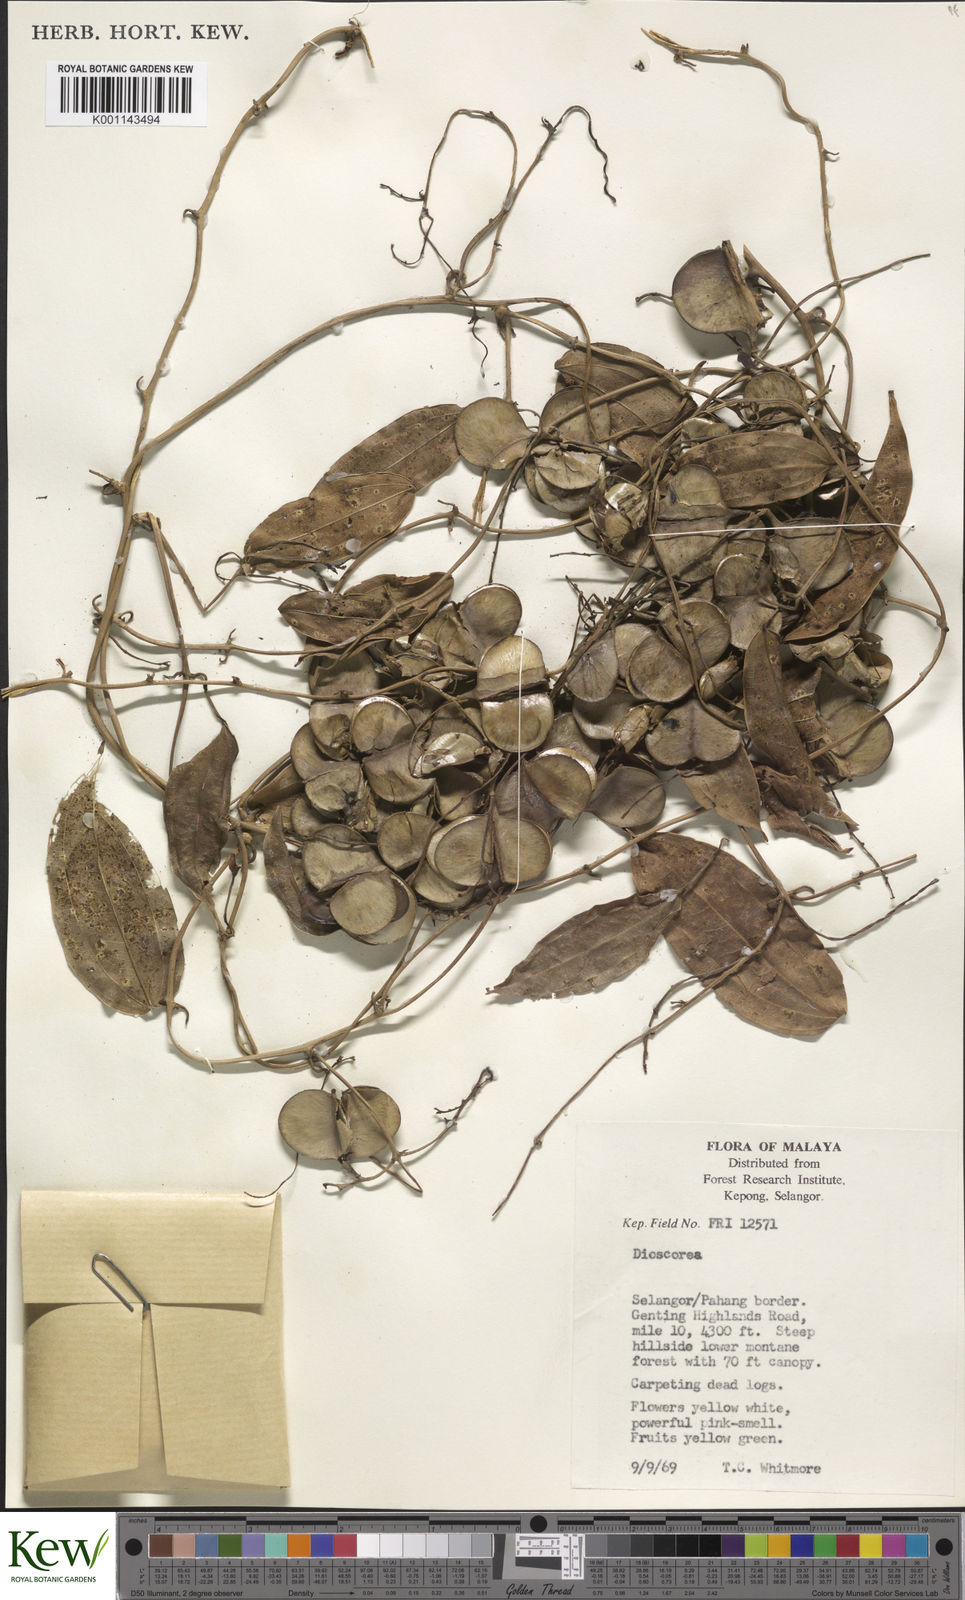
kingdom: Plantae
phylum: Tracheophyta
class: Liliopsida
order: Dioscoreales
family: Dioscoreaceae
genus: Dioscorea
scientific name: Dioscorea
